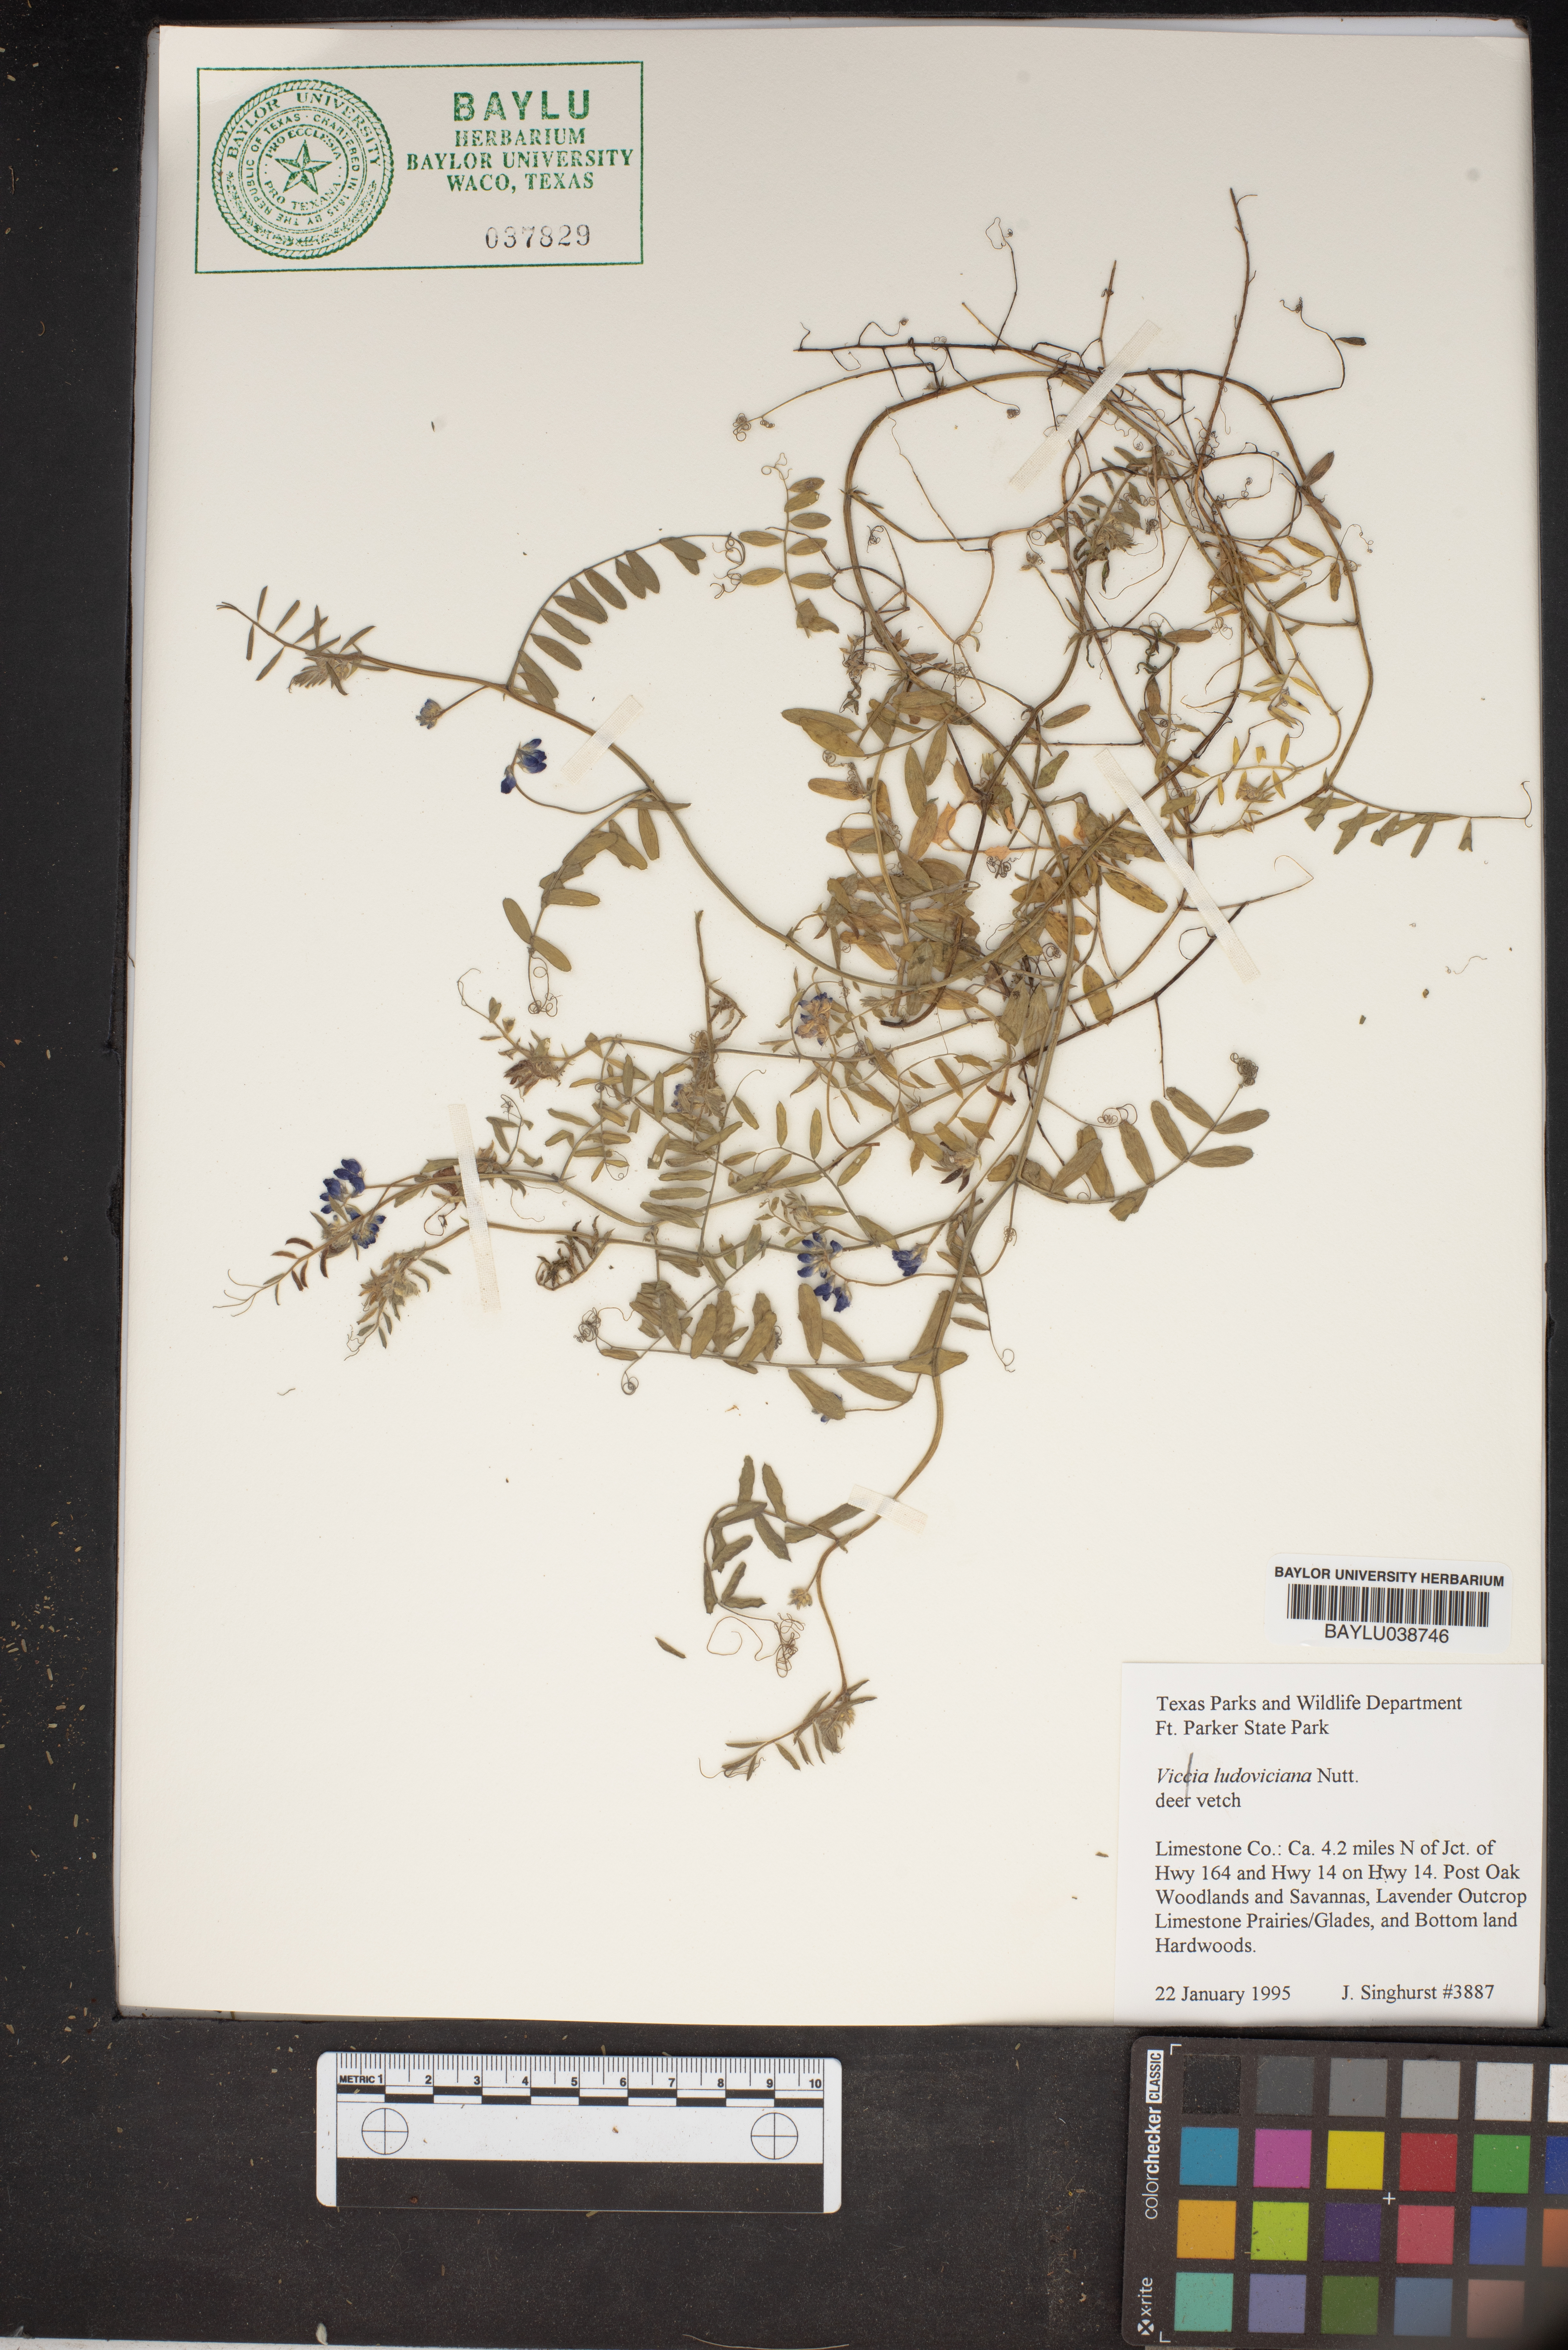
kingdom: Plantae
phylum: Tracheophyta
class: Magnoliopsida
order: Fabales
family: Fabaceae
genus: Vicia
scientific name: Vicia ludoviciana
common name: Louisiana vetch
